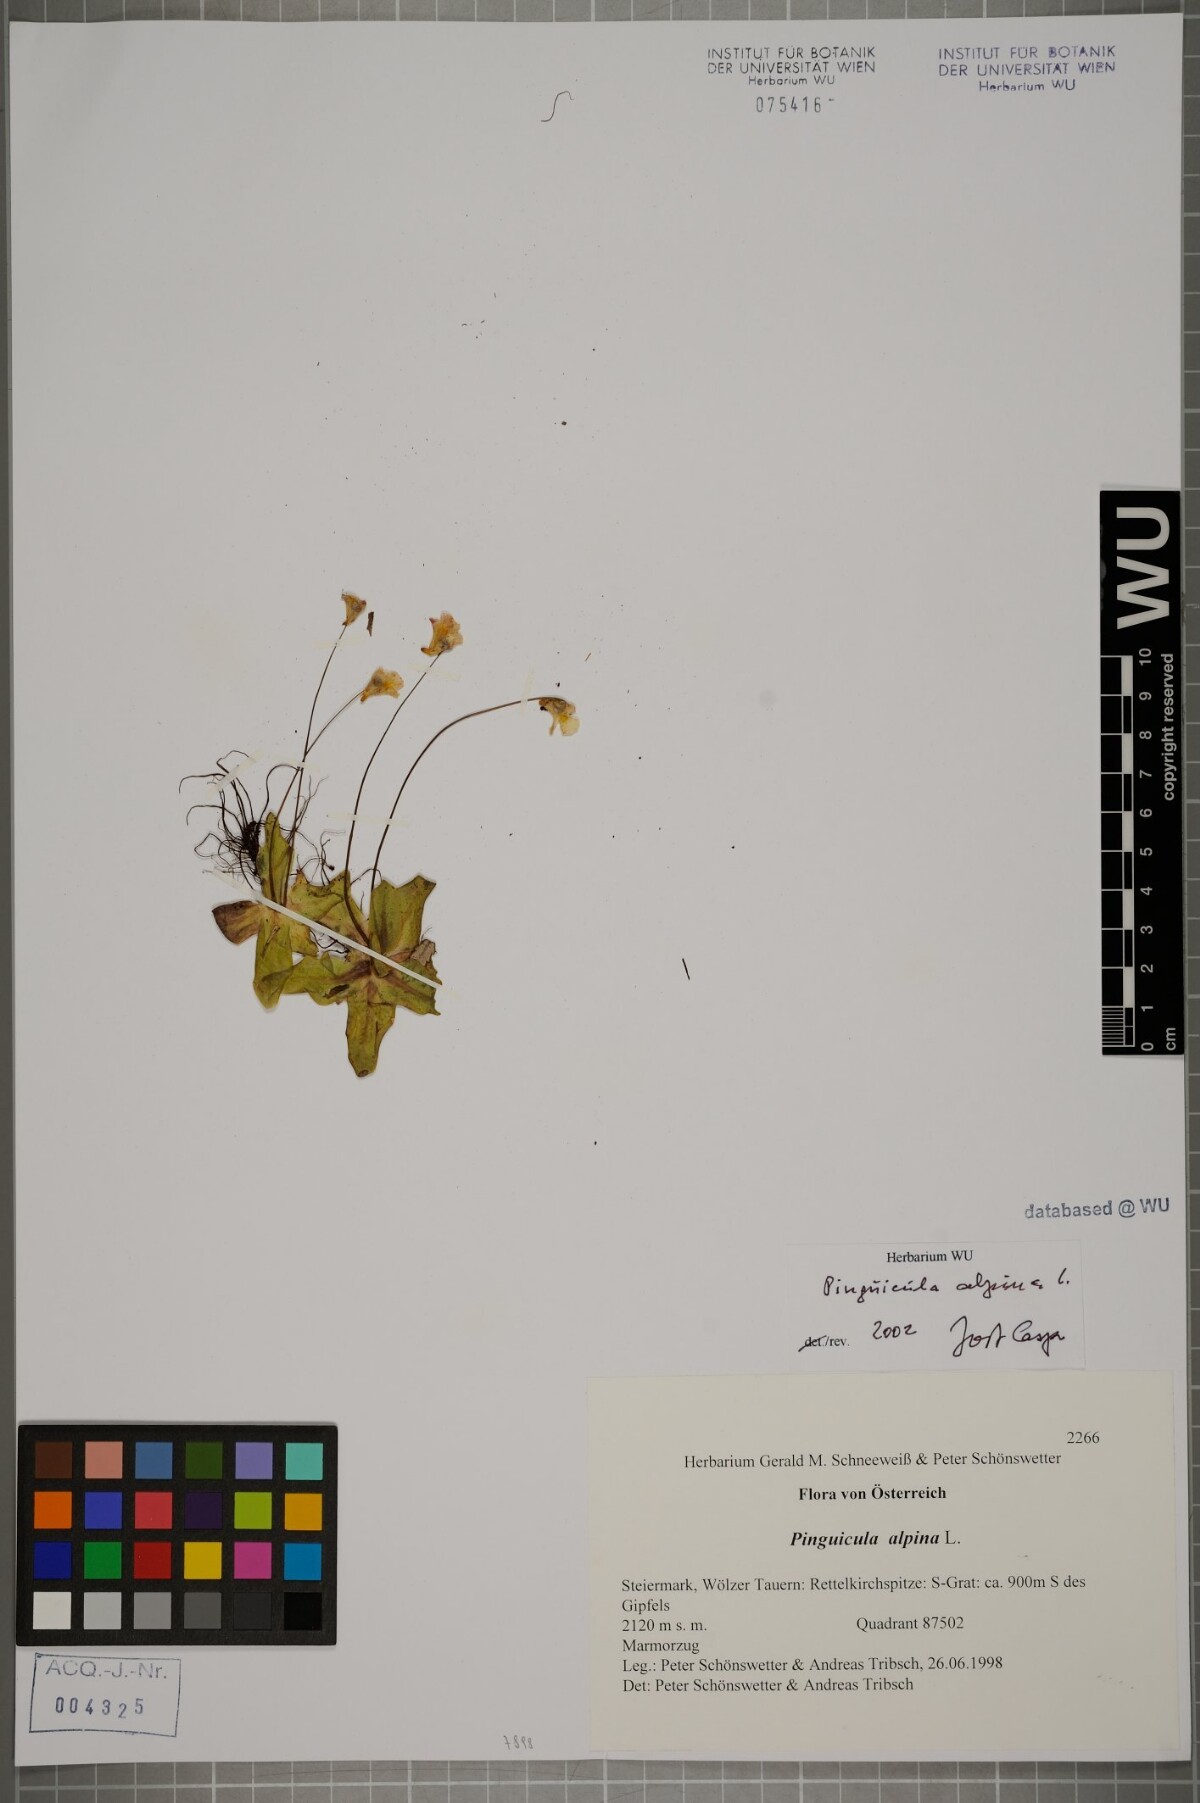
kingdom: Plantae
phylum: Tracheophyta
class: Magnoliopsida
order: Lamiales
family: Lentibulariaceae
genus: Pinguicula
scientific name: Pinguicula alpina
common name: Alpine butterwort
